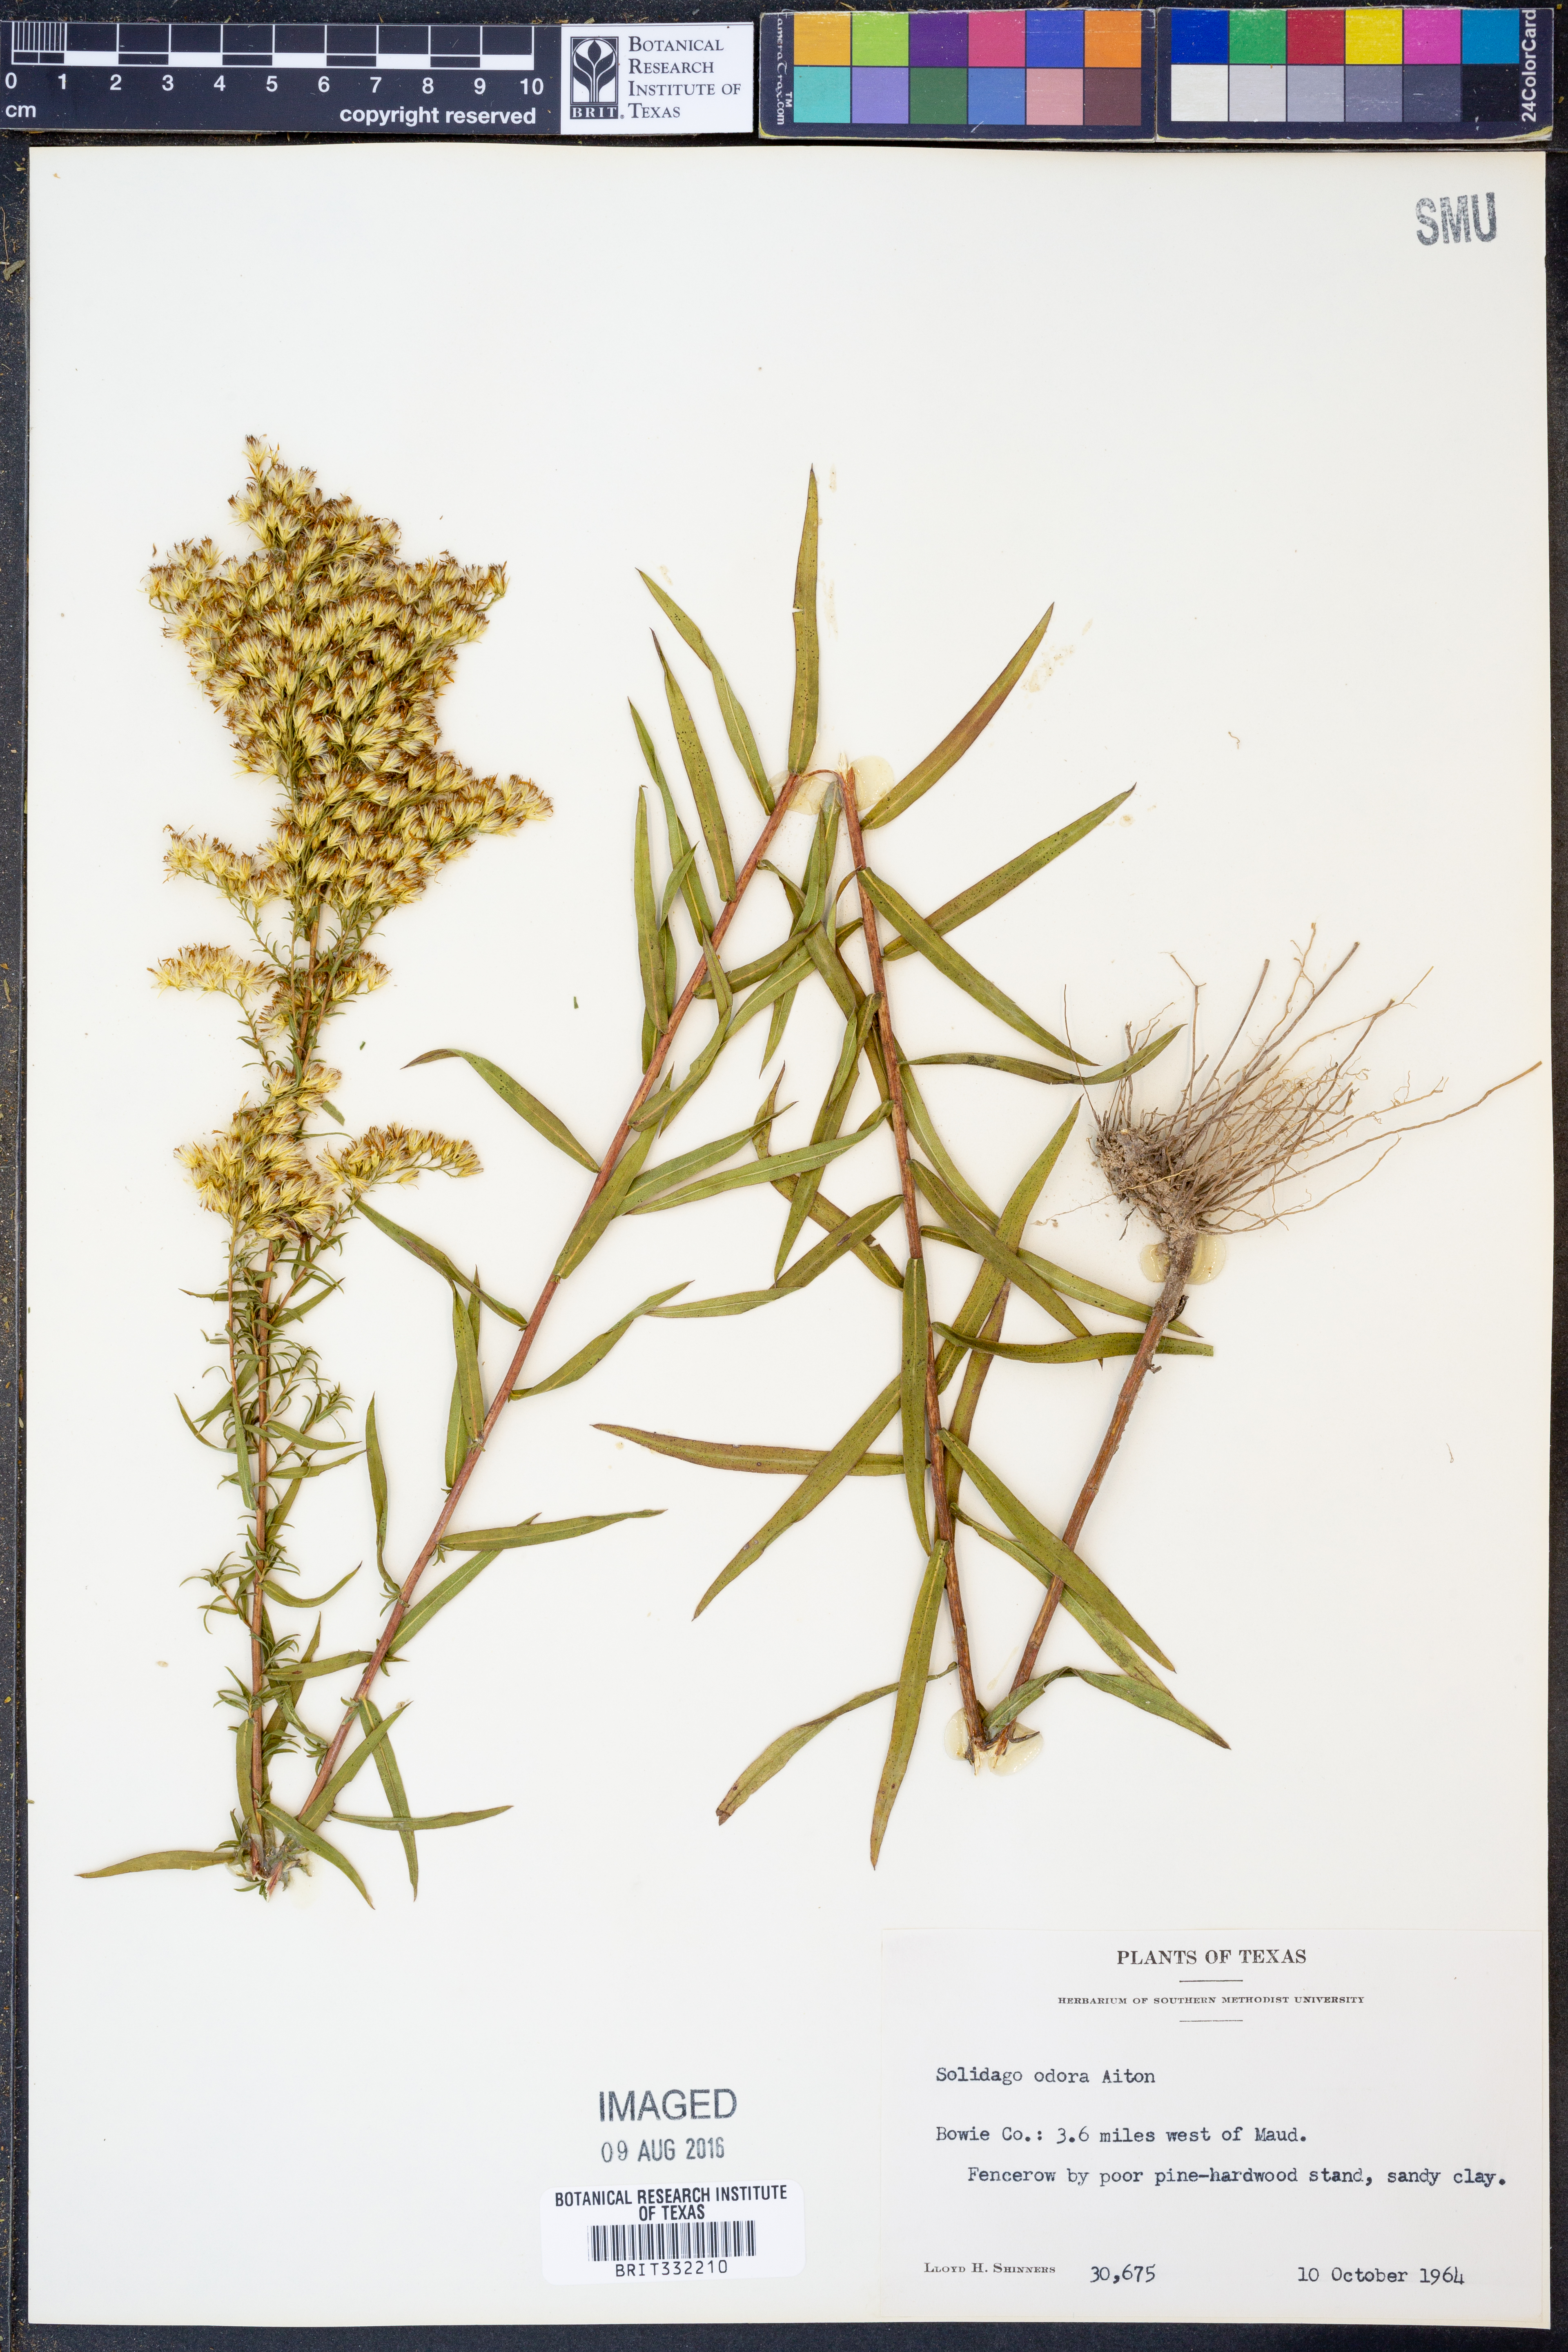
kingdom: Plantae
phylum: Tracheophyta
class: Magnoliopsida
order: Asterales
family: Asteraceae
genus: Solidago
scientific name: Solidago rugosa
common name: Rough-stemmed goldenrod
